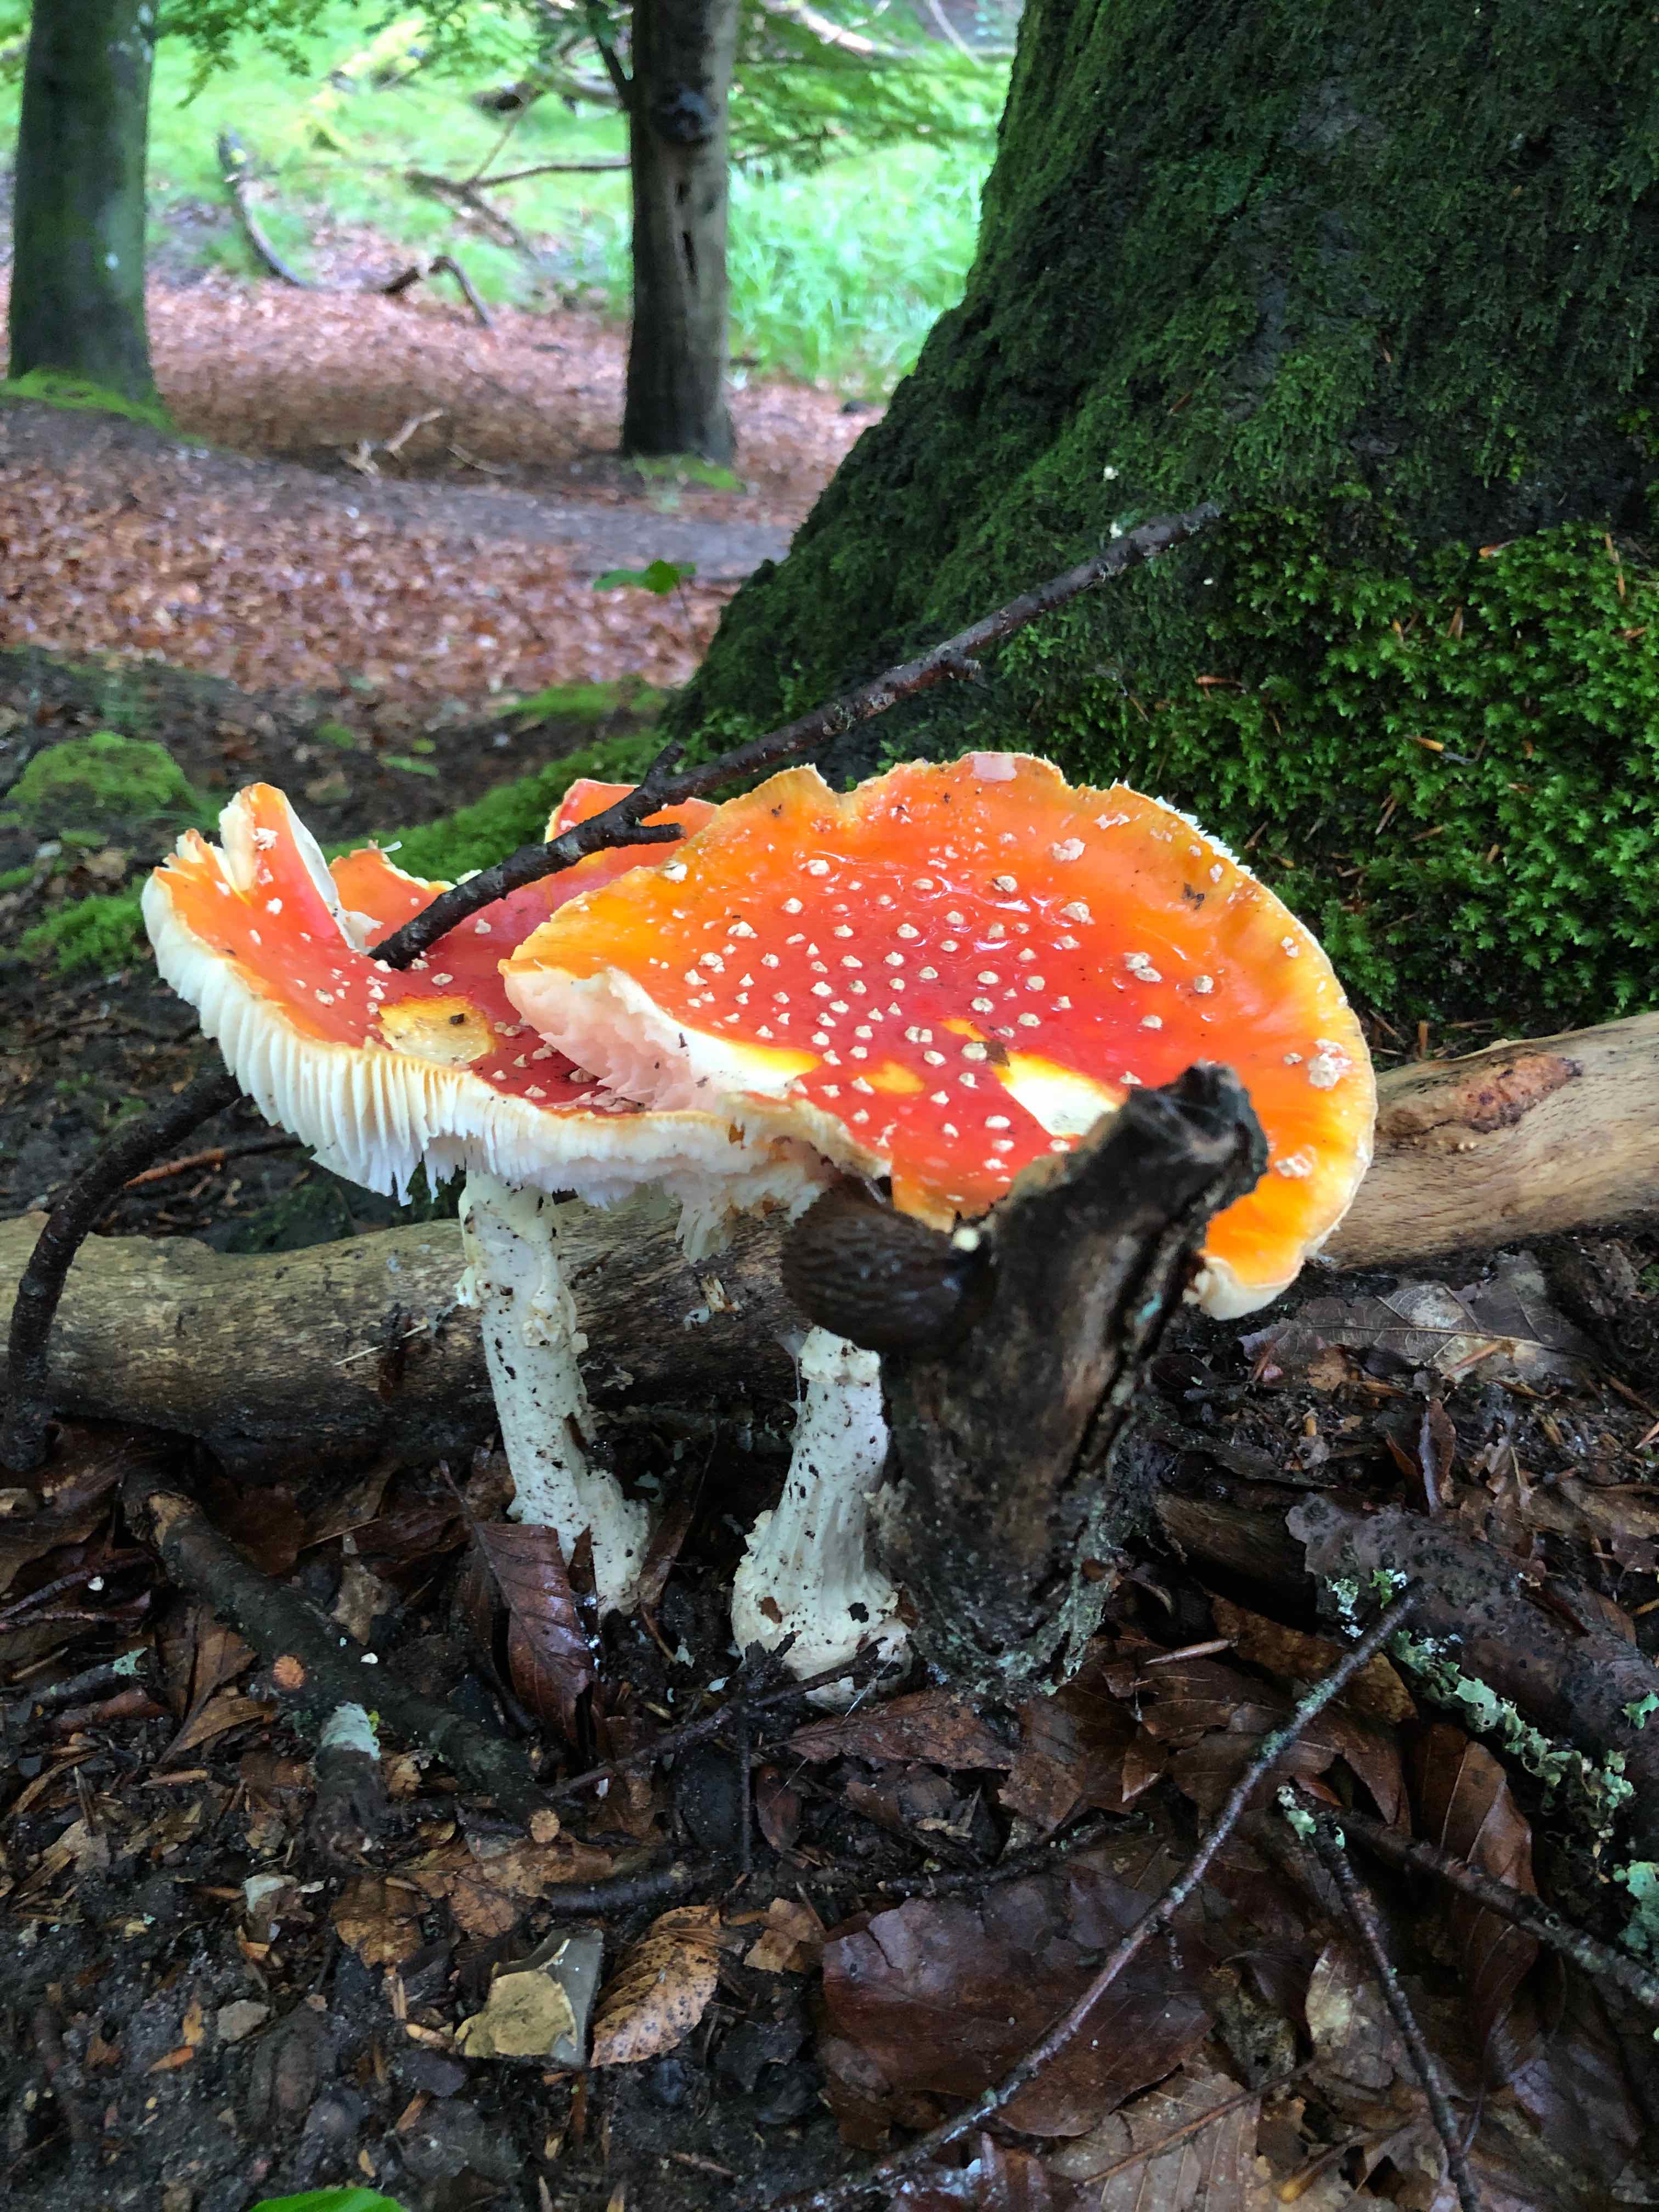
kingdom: Fungi
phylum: Basidiomycota
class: Agaricomycetes
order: Agaricales
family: Amanitaceae
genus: Amanita
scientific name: Amanita muscaria
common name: rød fluesvamp
